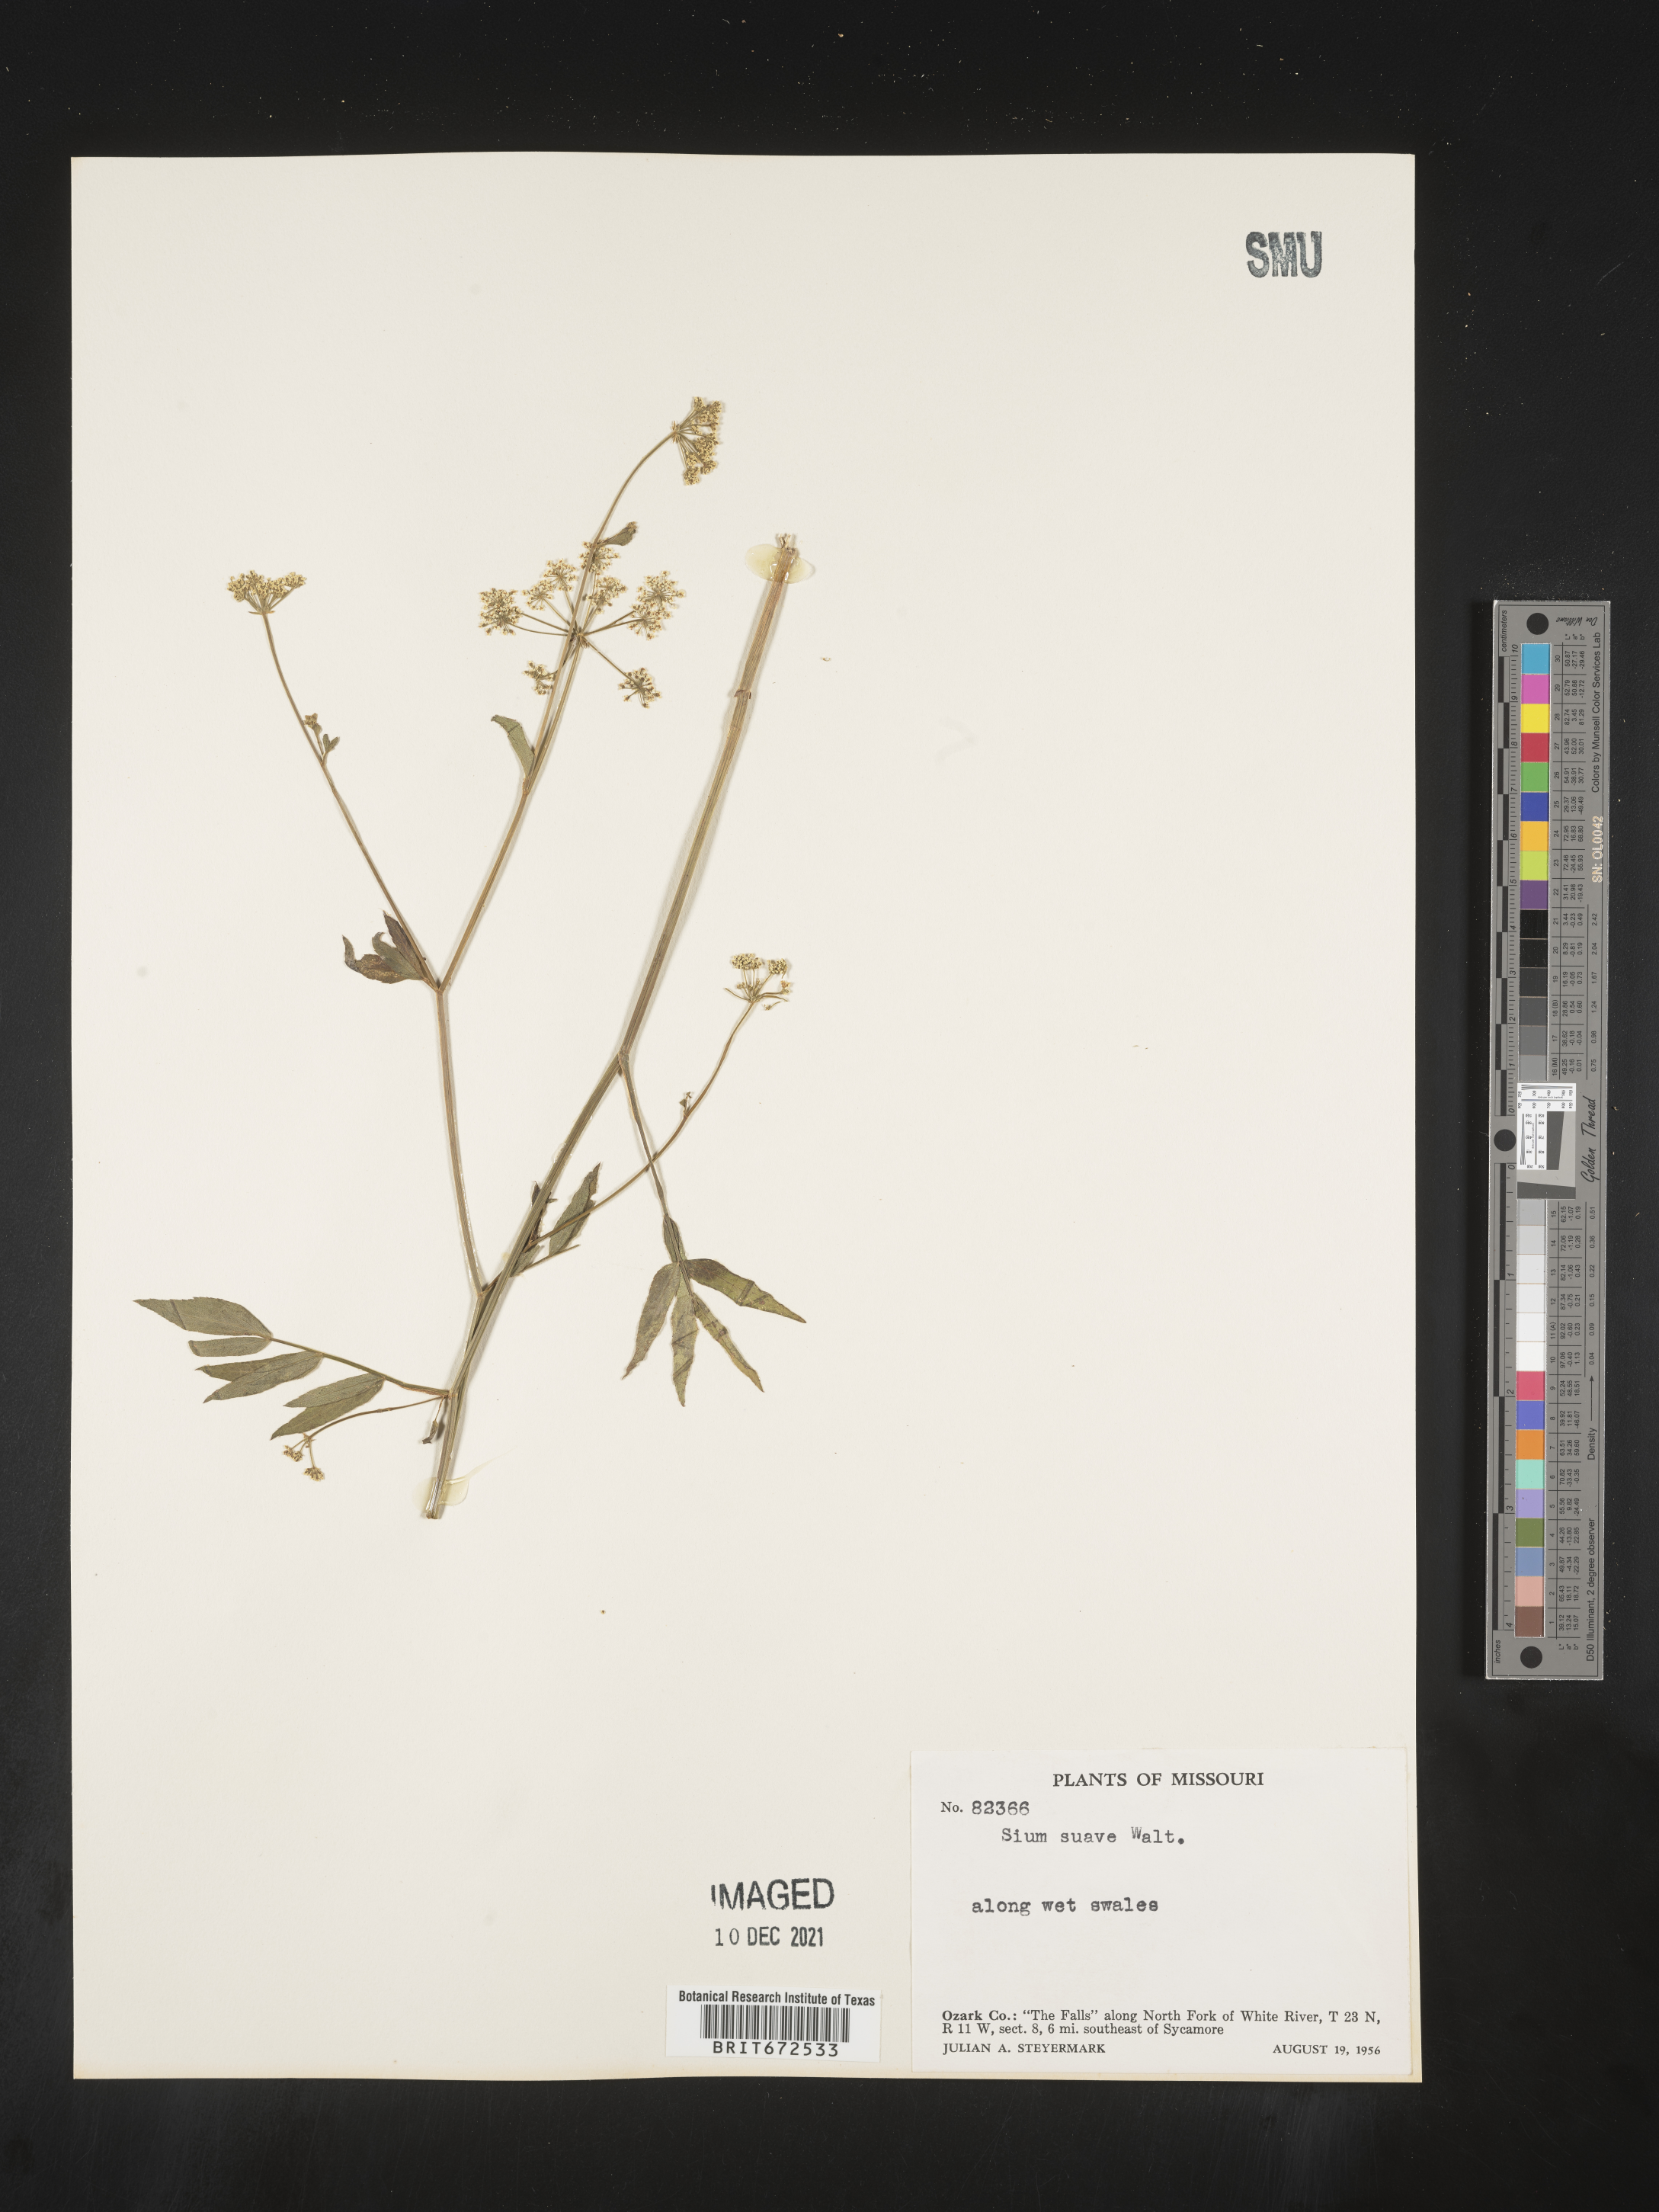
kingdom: Plantae
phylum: Tracheophyta
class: Magnoliopsida
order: Apiales
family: Apiaceae
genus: Sium
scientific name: Sium suave
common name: Hemlock water-parsnip
